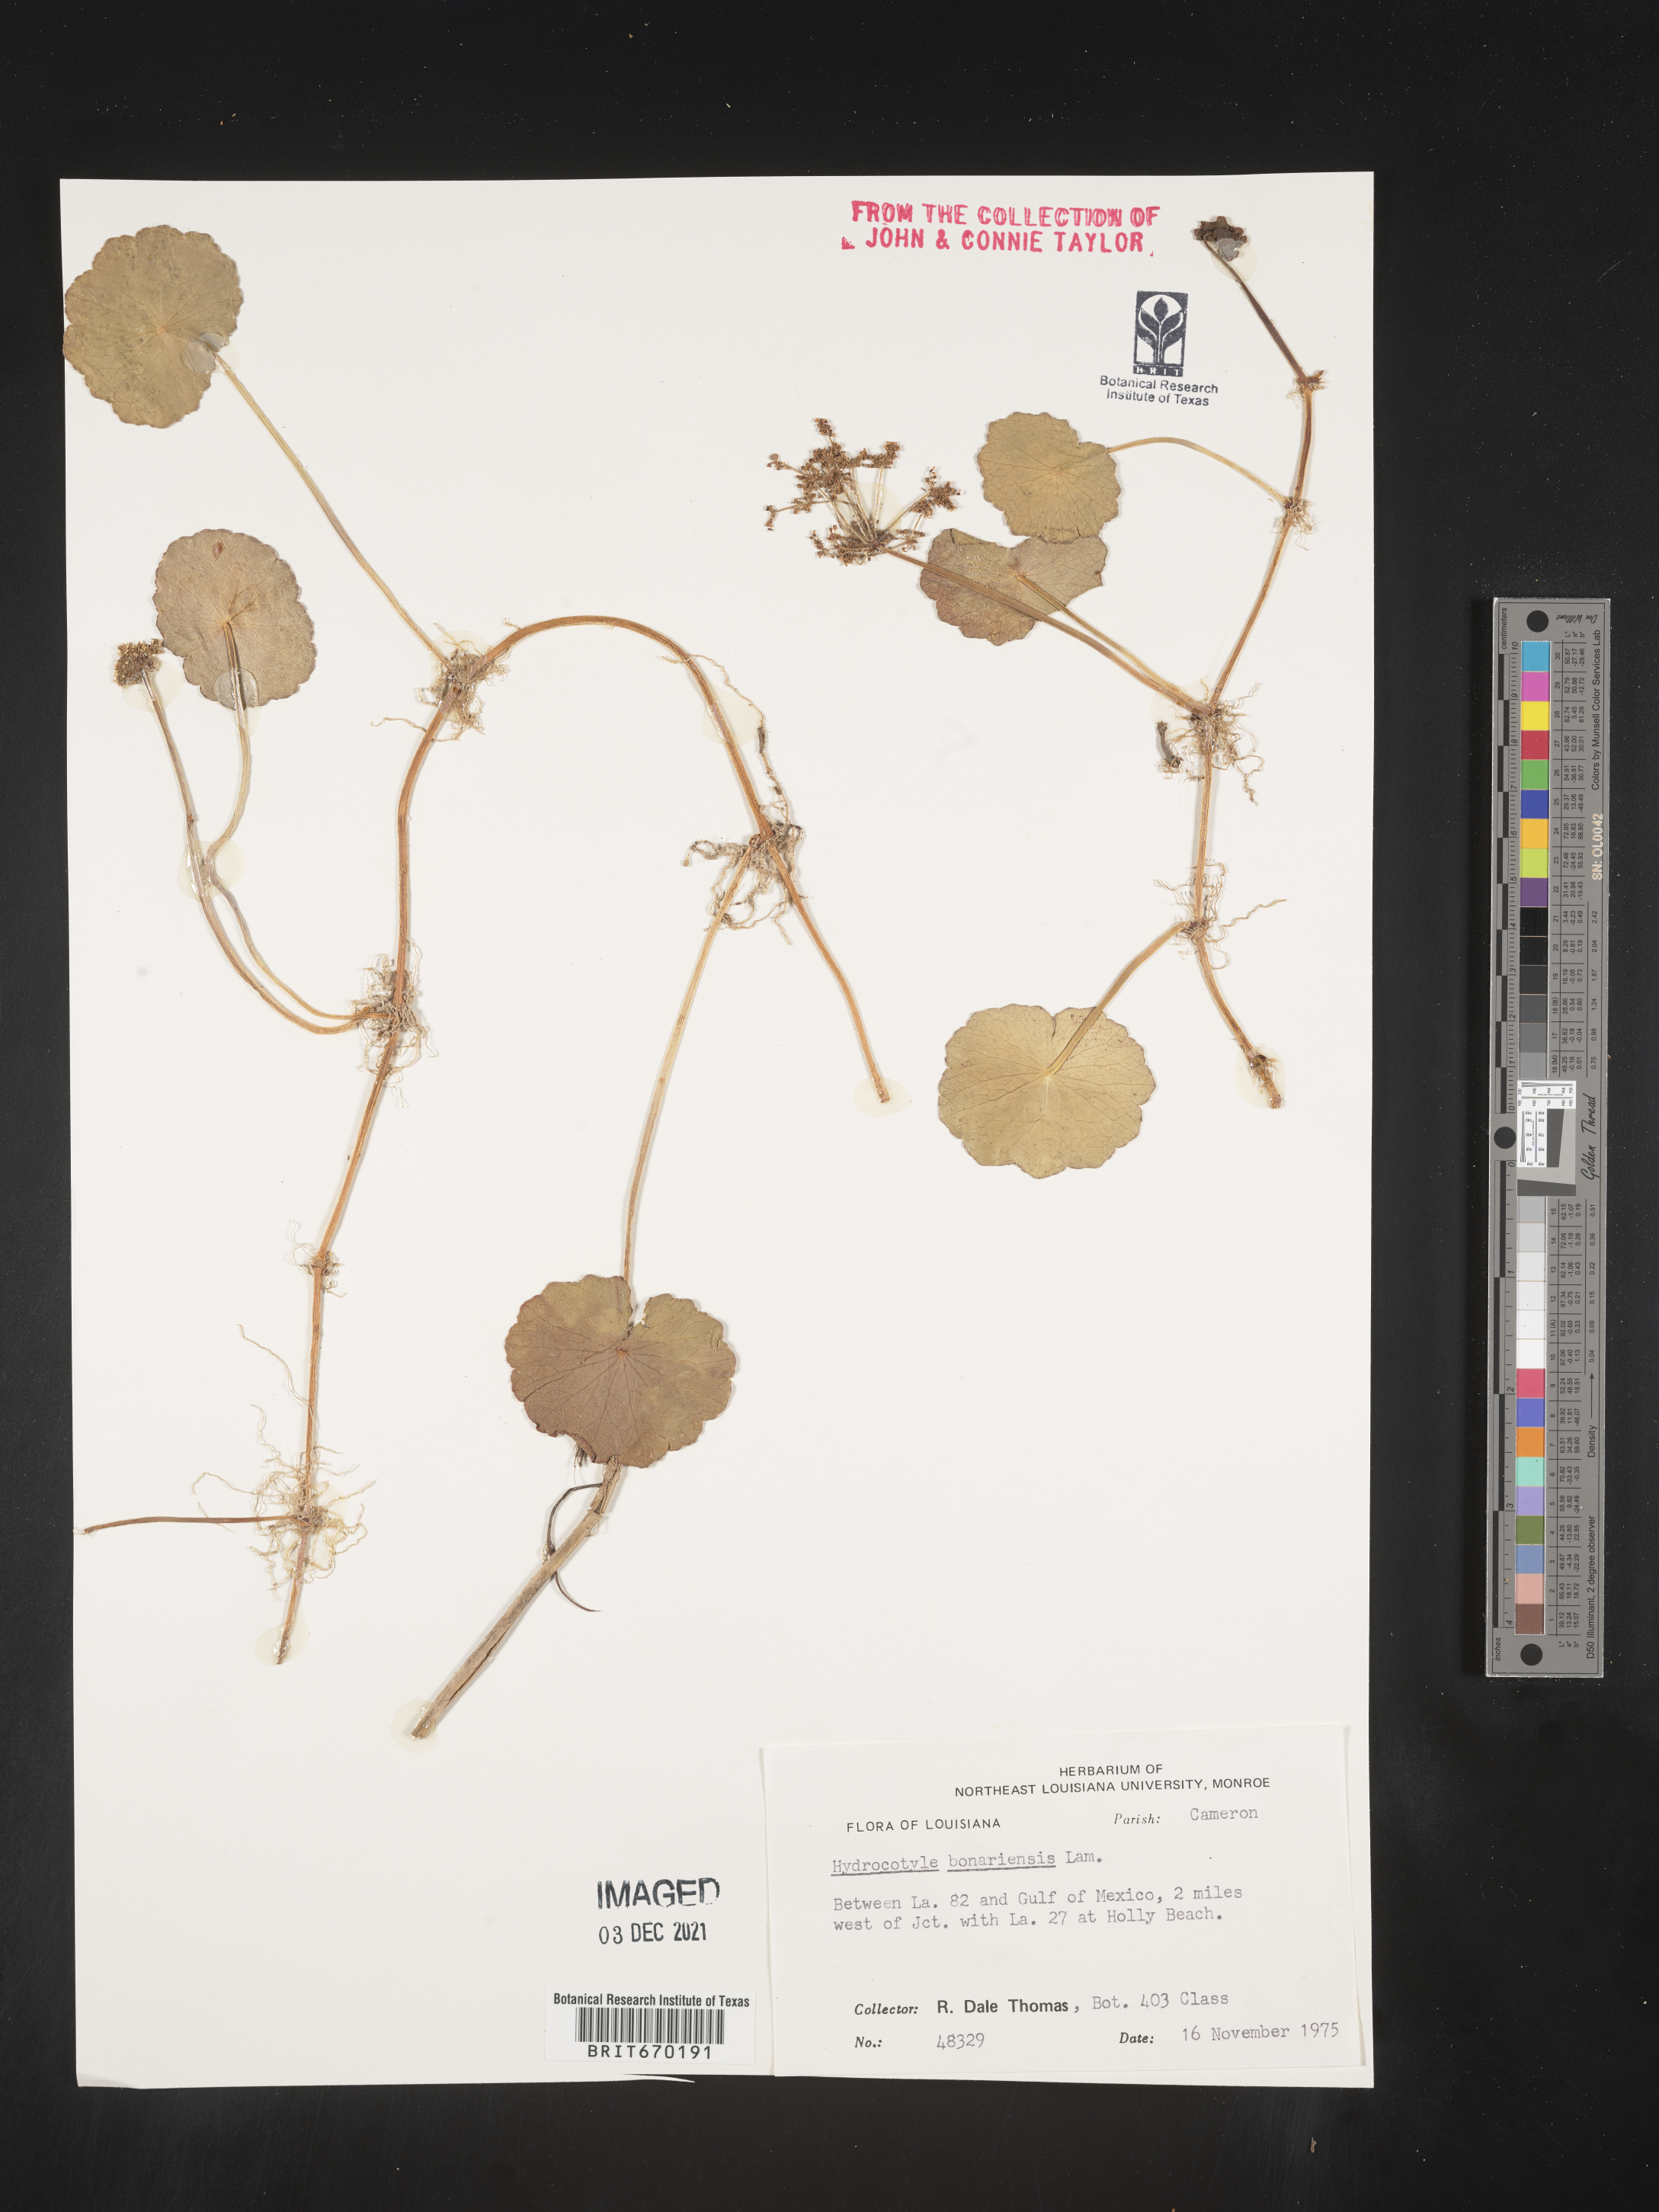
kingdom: Plantae
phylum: Tracheophyta
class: Magnoliopsida
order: Apiales
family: Araliaceae
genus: Hydrocotyle
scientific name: Hydrocotyle bonariensis
